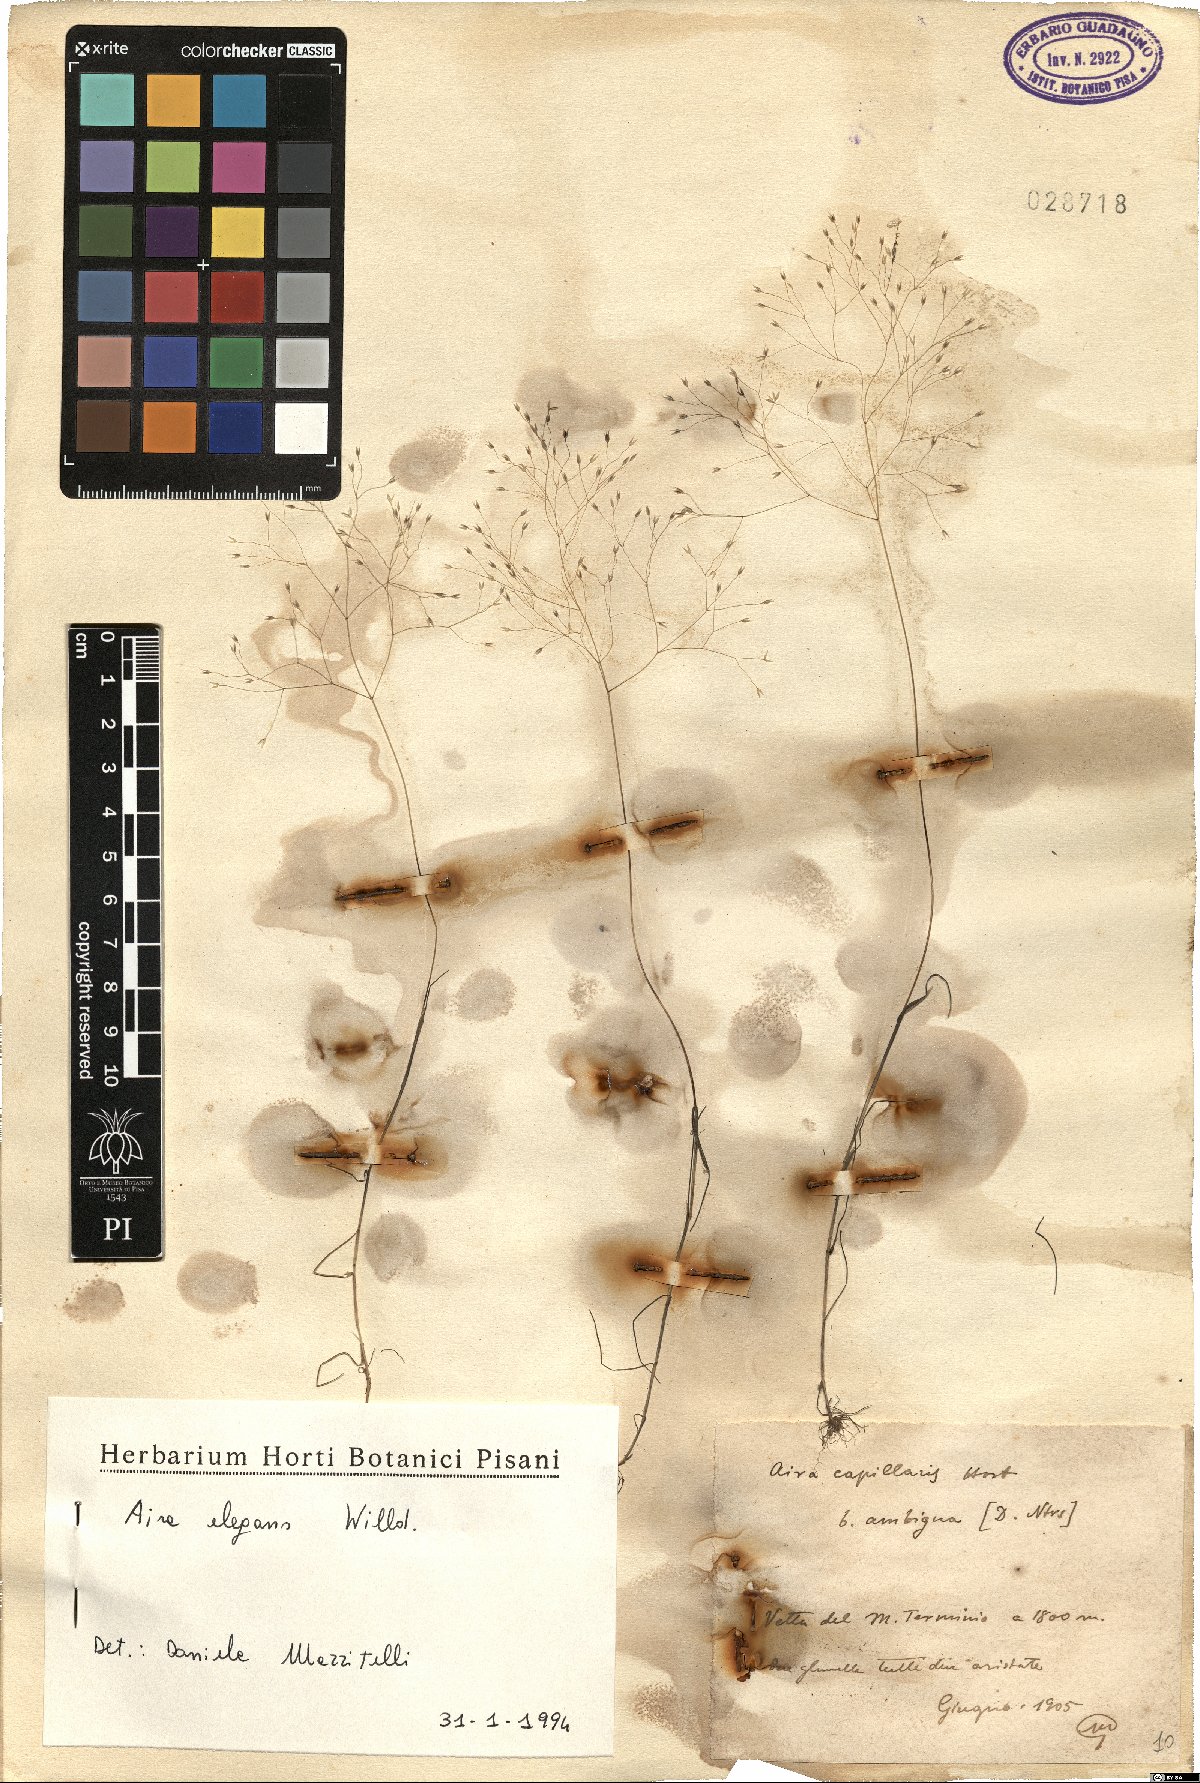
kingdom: Plantae
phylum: Tracheophyta
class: Liliopsida
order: Poales
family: Poaceae
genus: Aira
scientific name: Aira elegans
